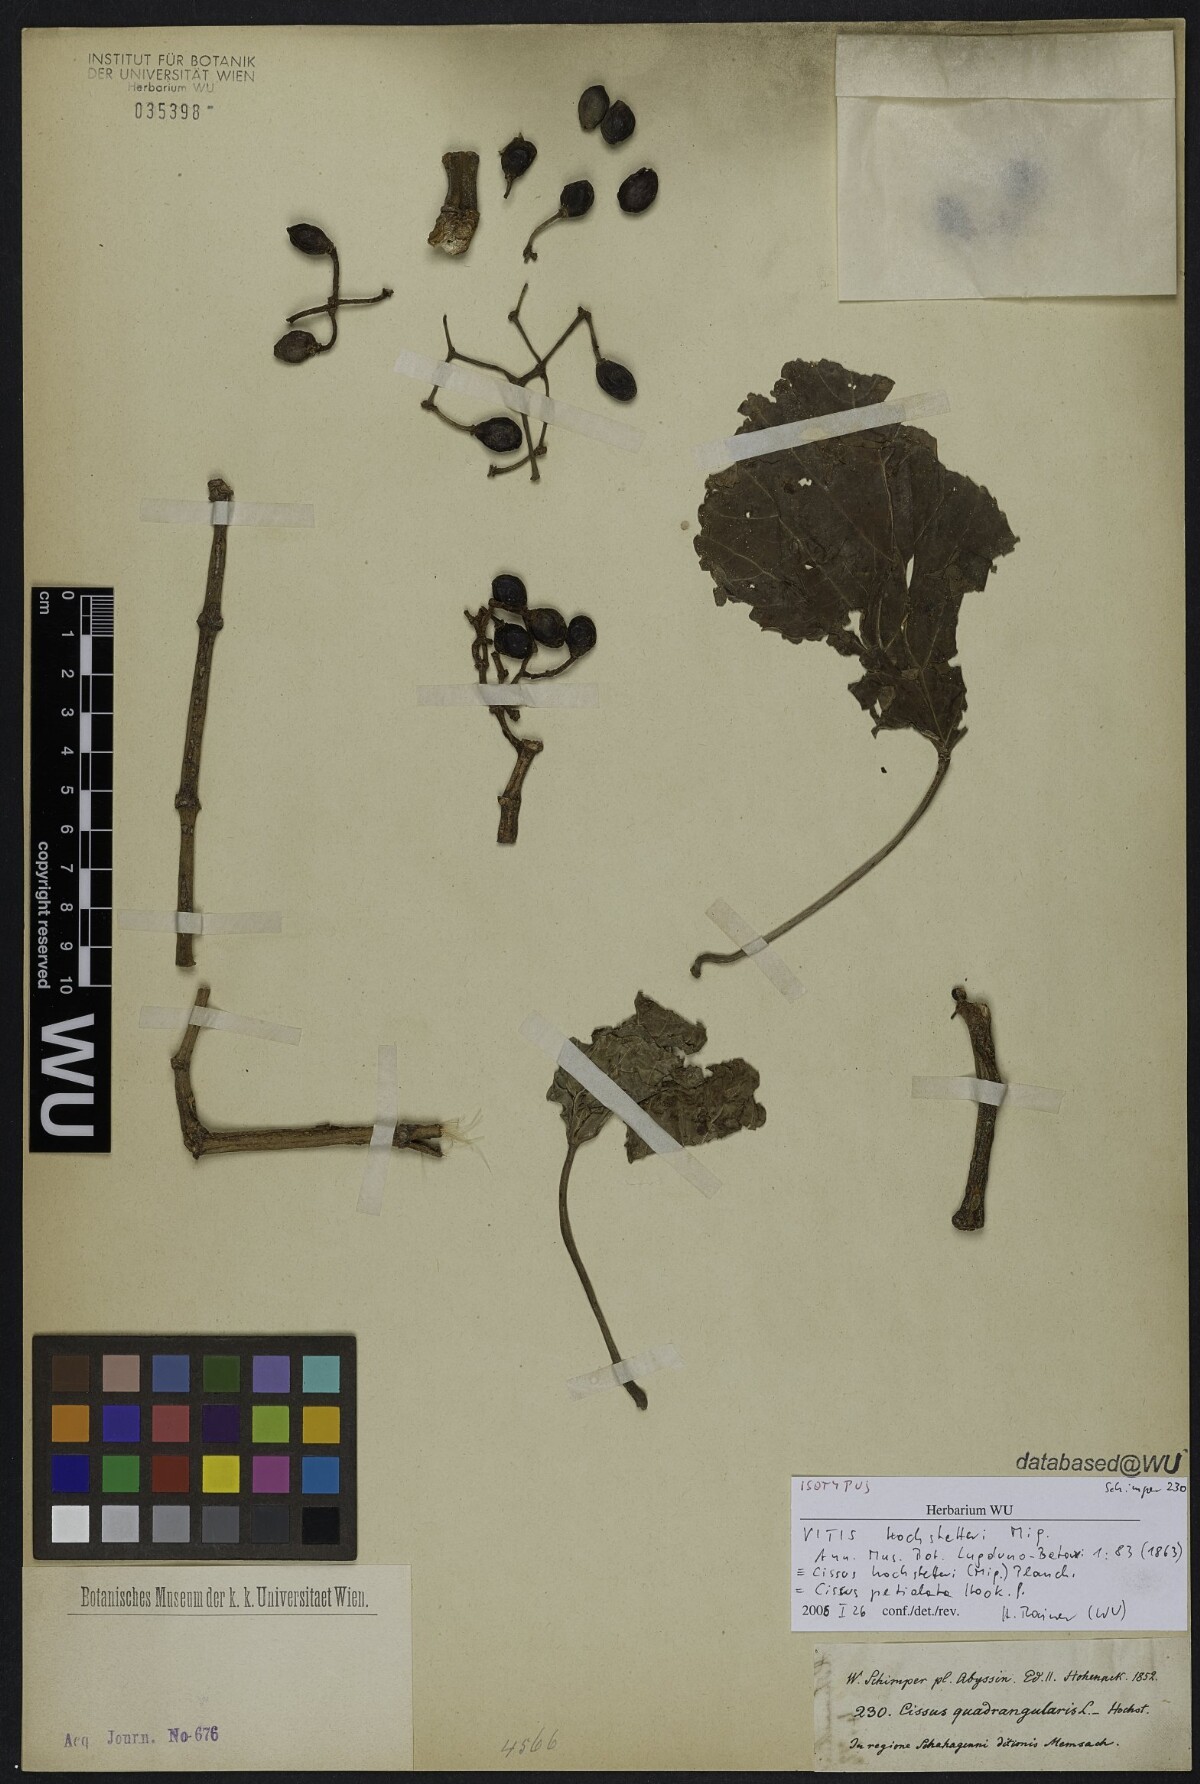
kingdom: Plantae
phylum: Tracheophyta
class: Magnoliopsida
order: Vitales
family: Vitaceae
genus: Cissus
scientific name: Cissus petiolata
